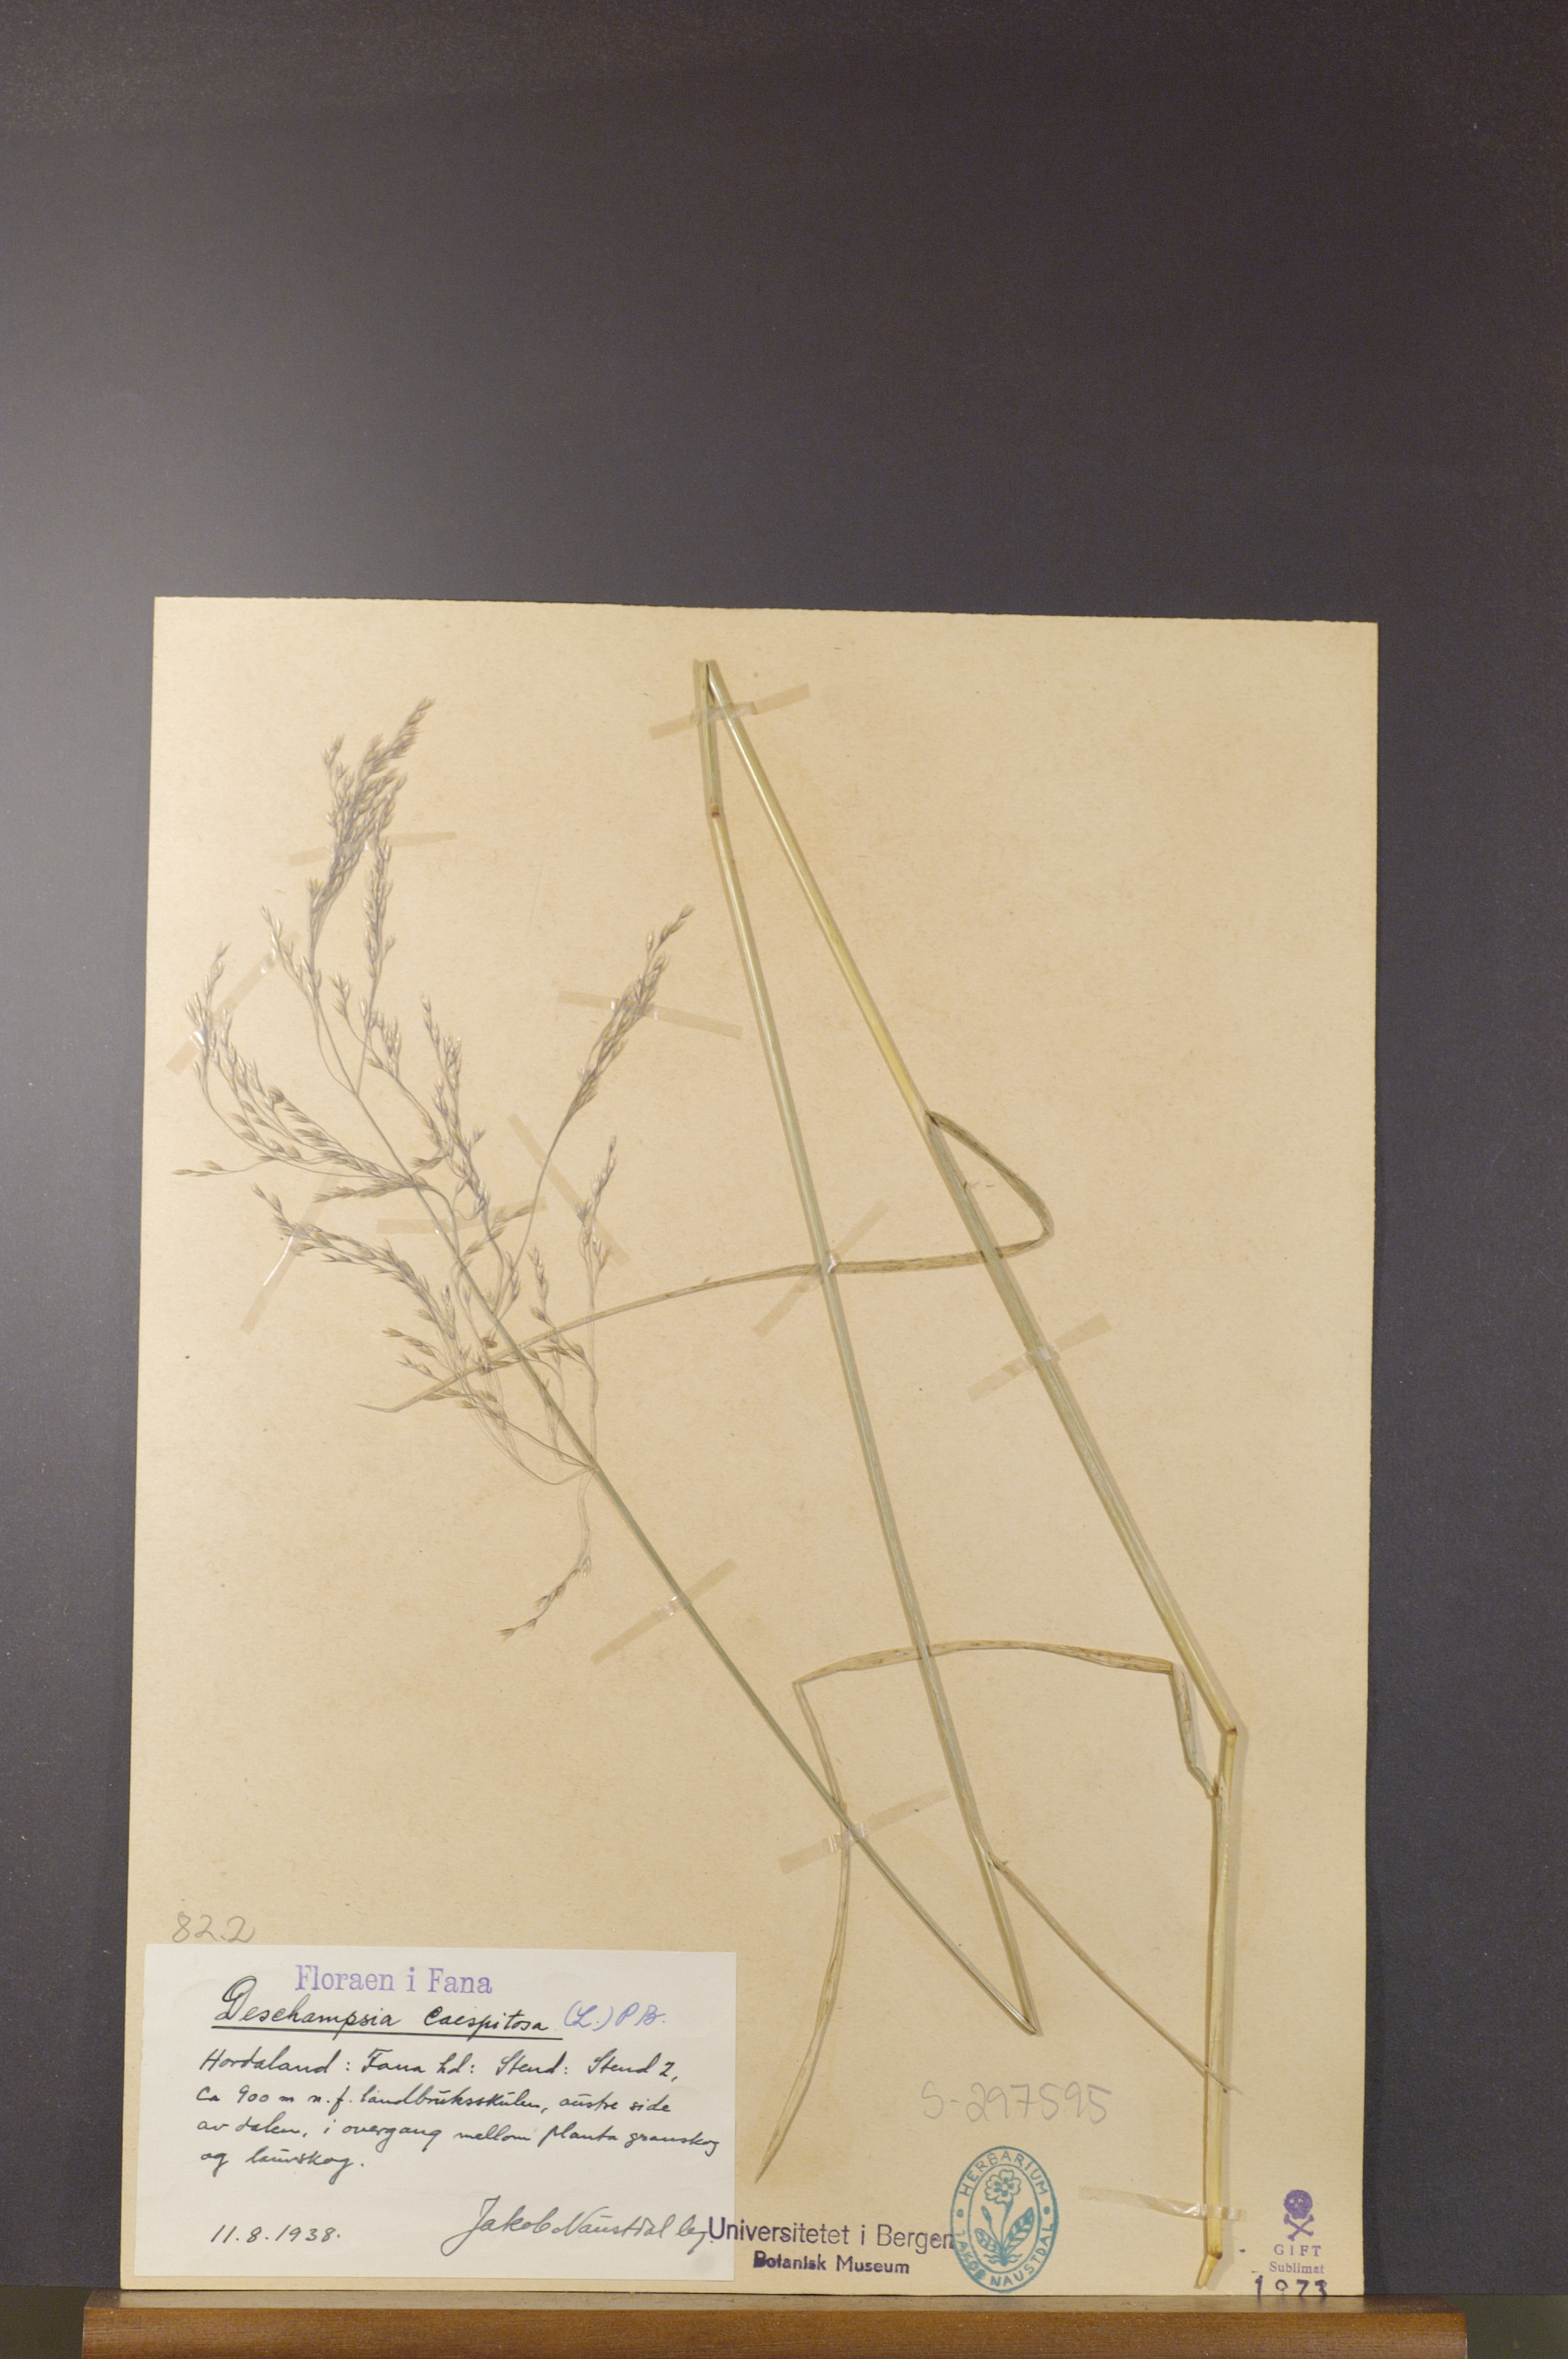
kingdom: Plantae
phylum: Tracheophyta
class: Liliopsida
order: Poales
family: Poaceae
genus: Deschampsia
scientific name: Deschampsia cespitosa
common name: Tufted hair-grass
